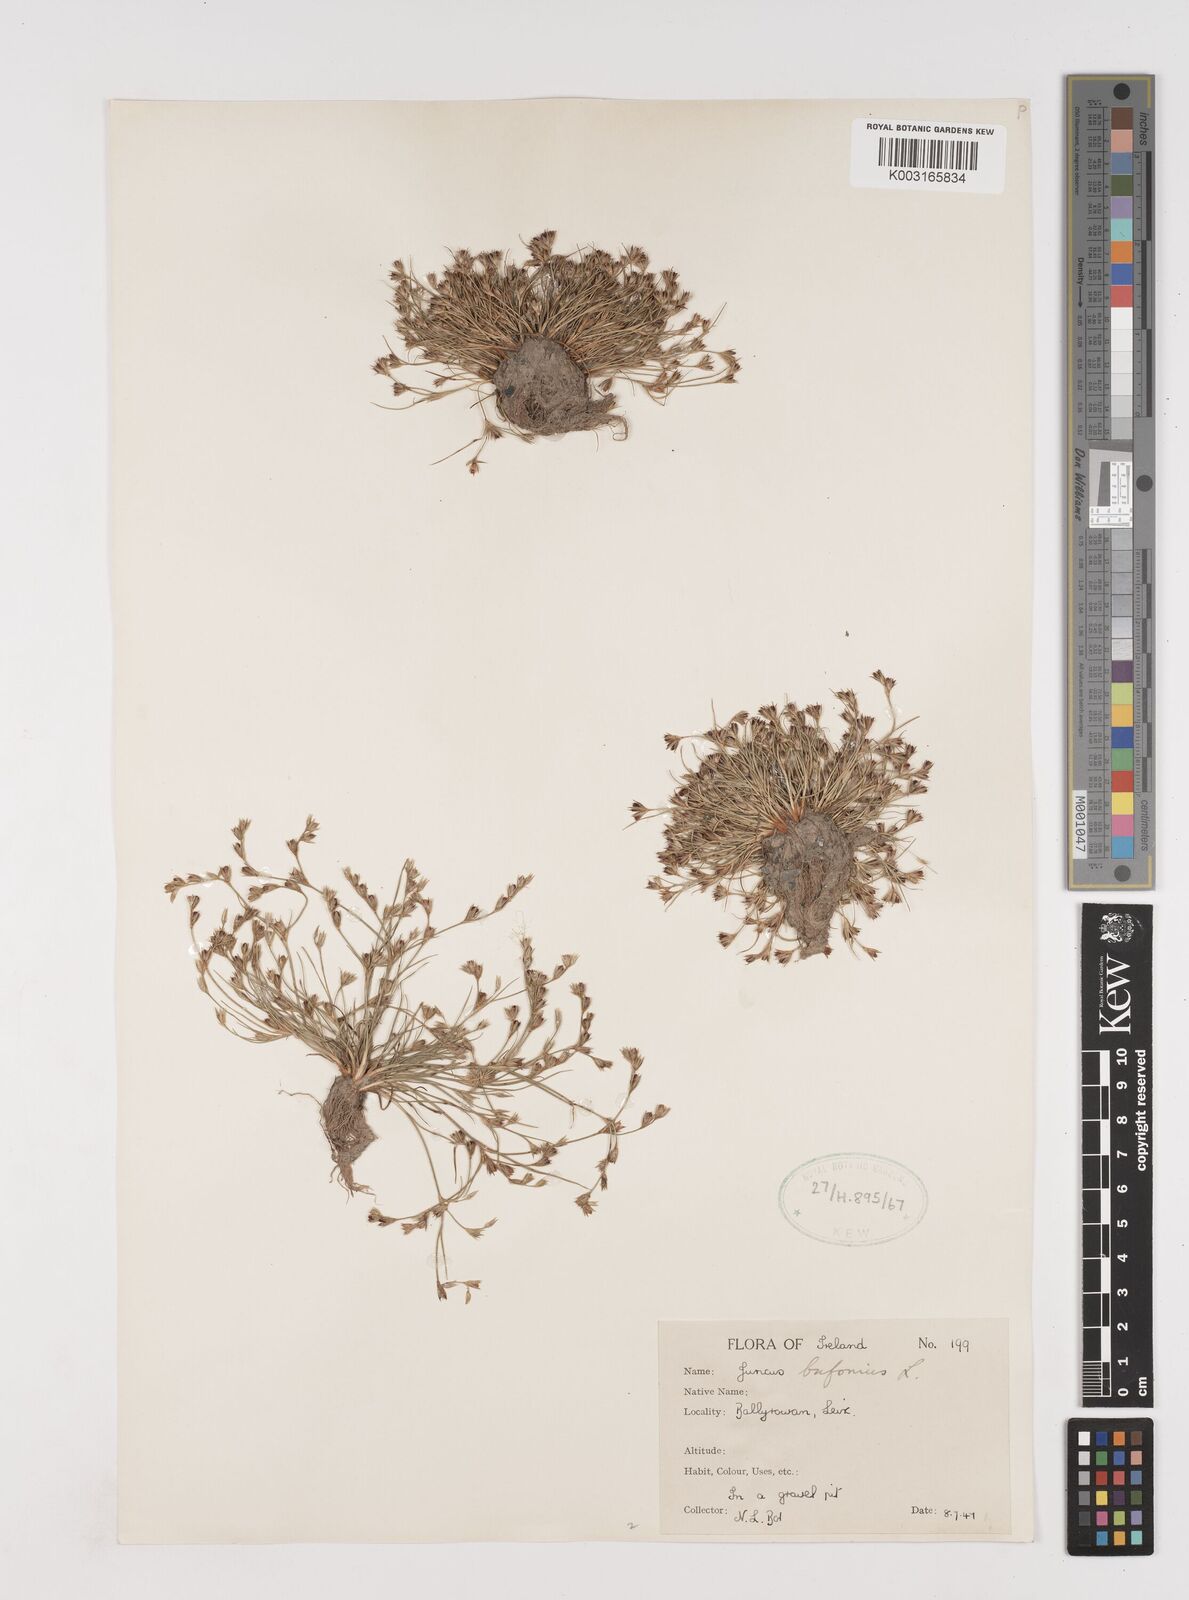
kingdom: Plantae
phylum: Tracheophyta
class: Liliopsida
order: Poales
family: Juncaceae
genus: Juncus
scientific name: Juncus bufonius
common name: Toad rush
